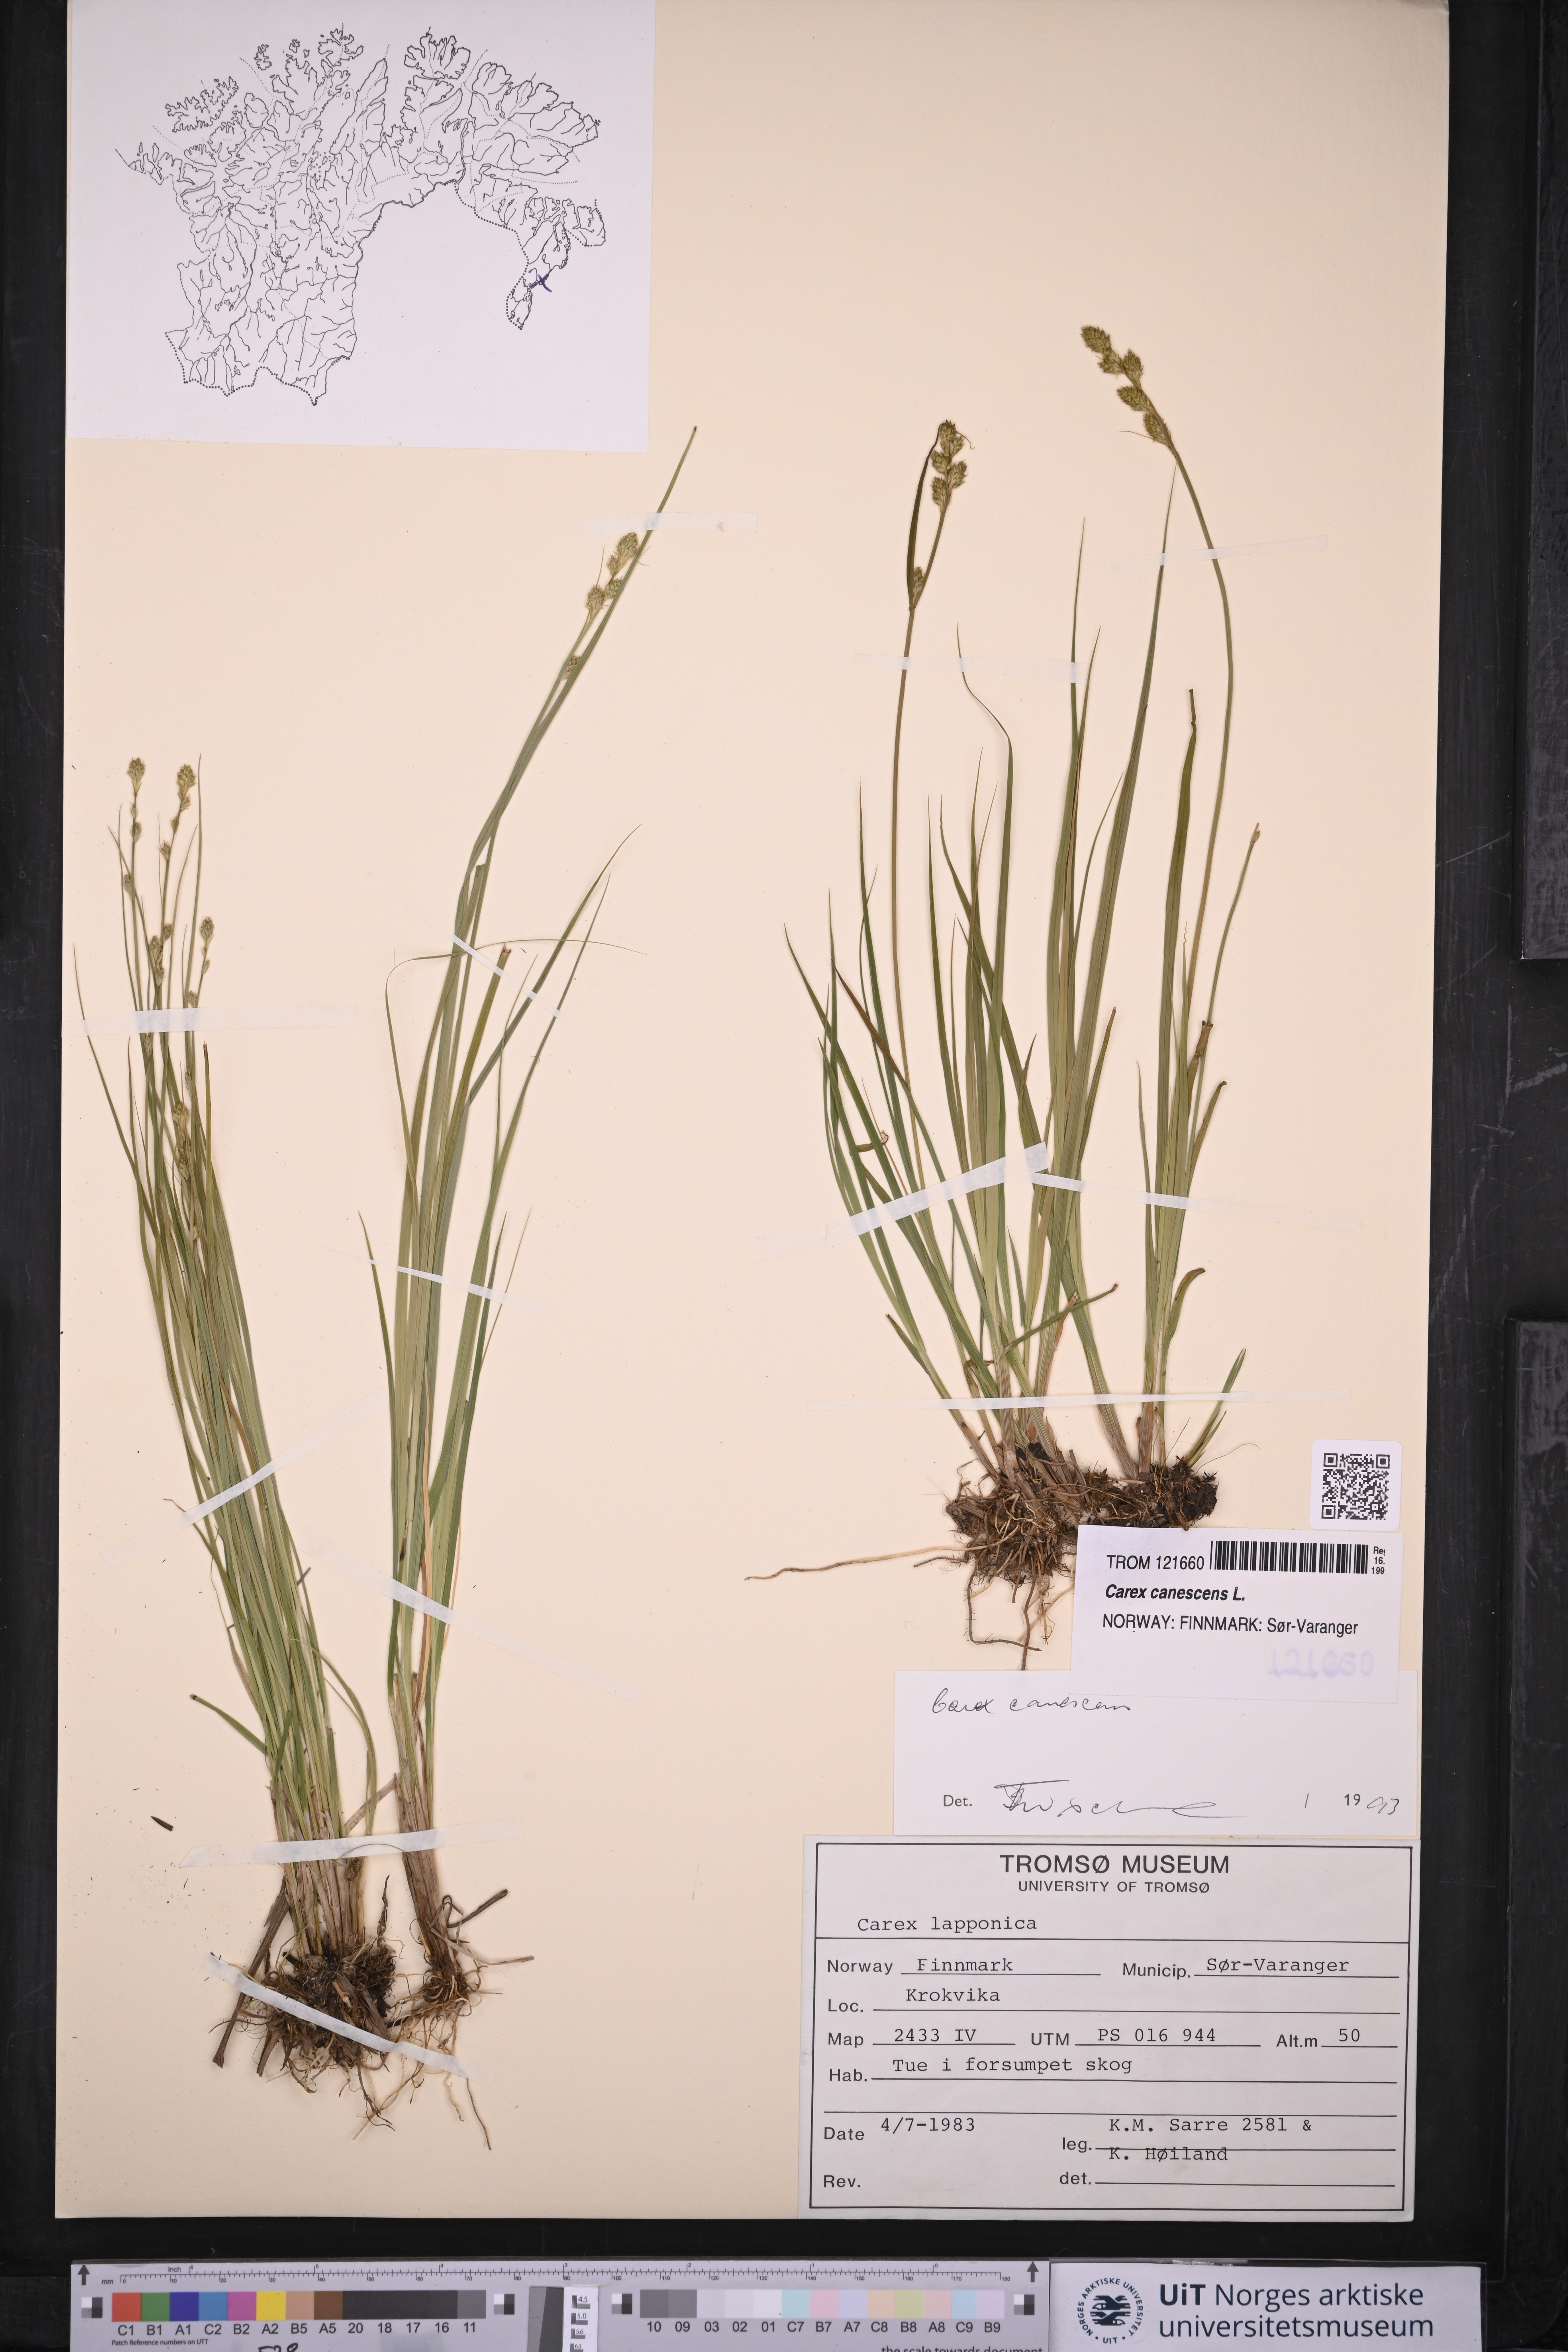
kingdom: Plantae
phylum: Tracheophyta
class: Liliopsida
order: Poales
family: Cyperaceae
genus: Carex
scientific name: Carex canescens
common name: White sedge
